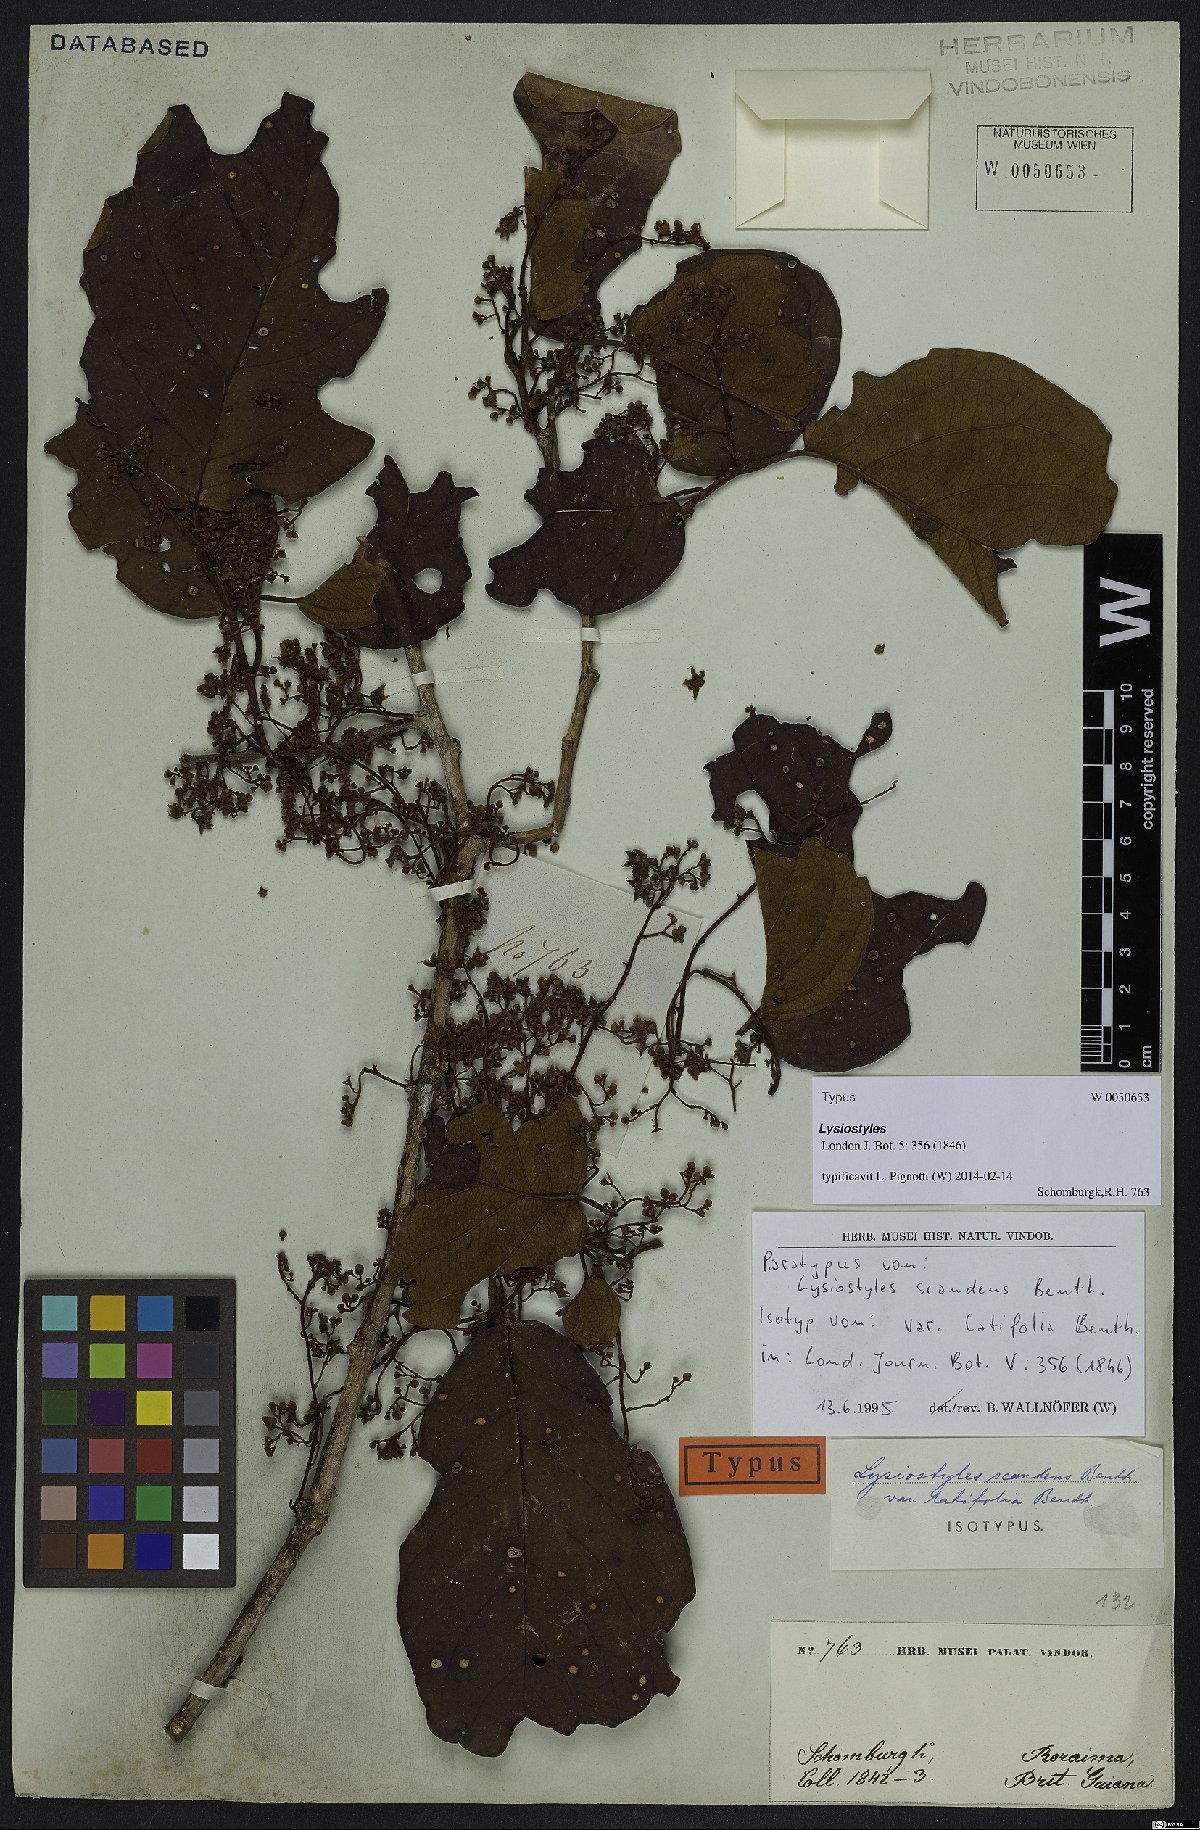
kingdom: Plantae
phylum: Tracheophyta
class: Magnoliopsida
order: Solanales
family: Convolvulaceae
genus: Lysiostyles
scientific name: Lysiostyles scandens
